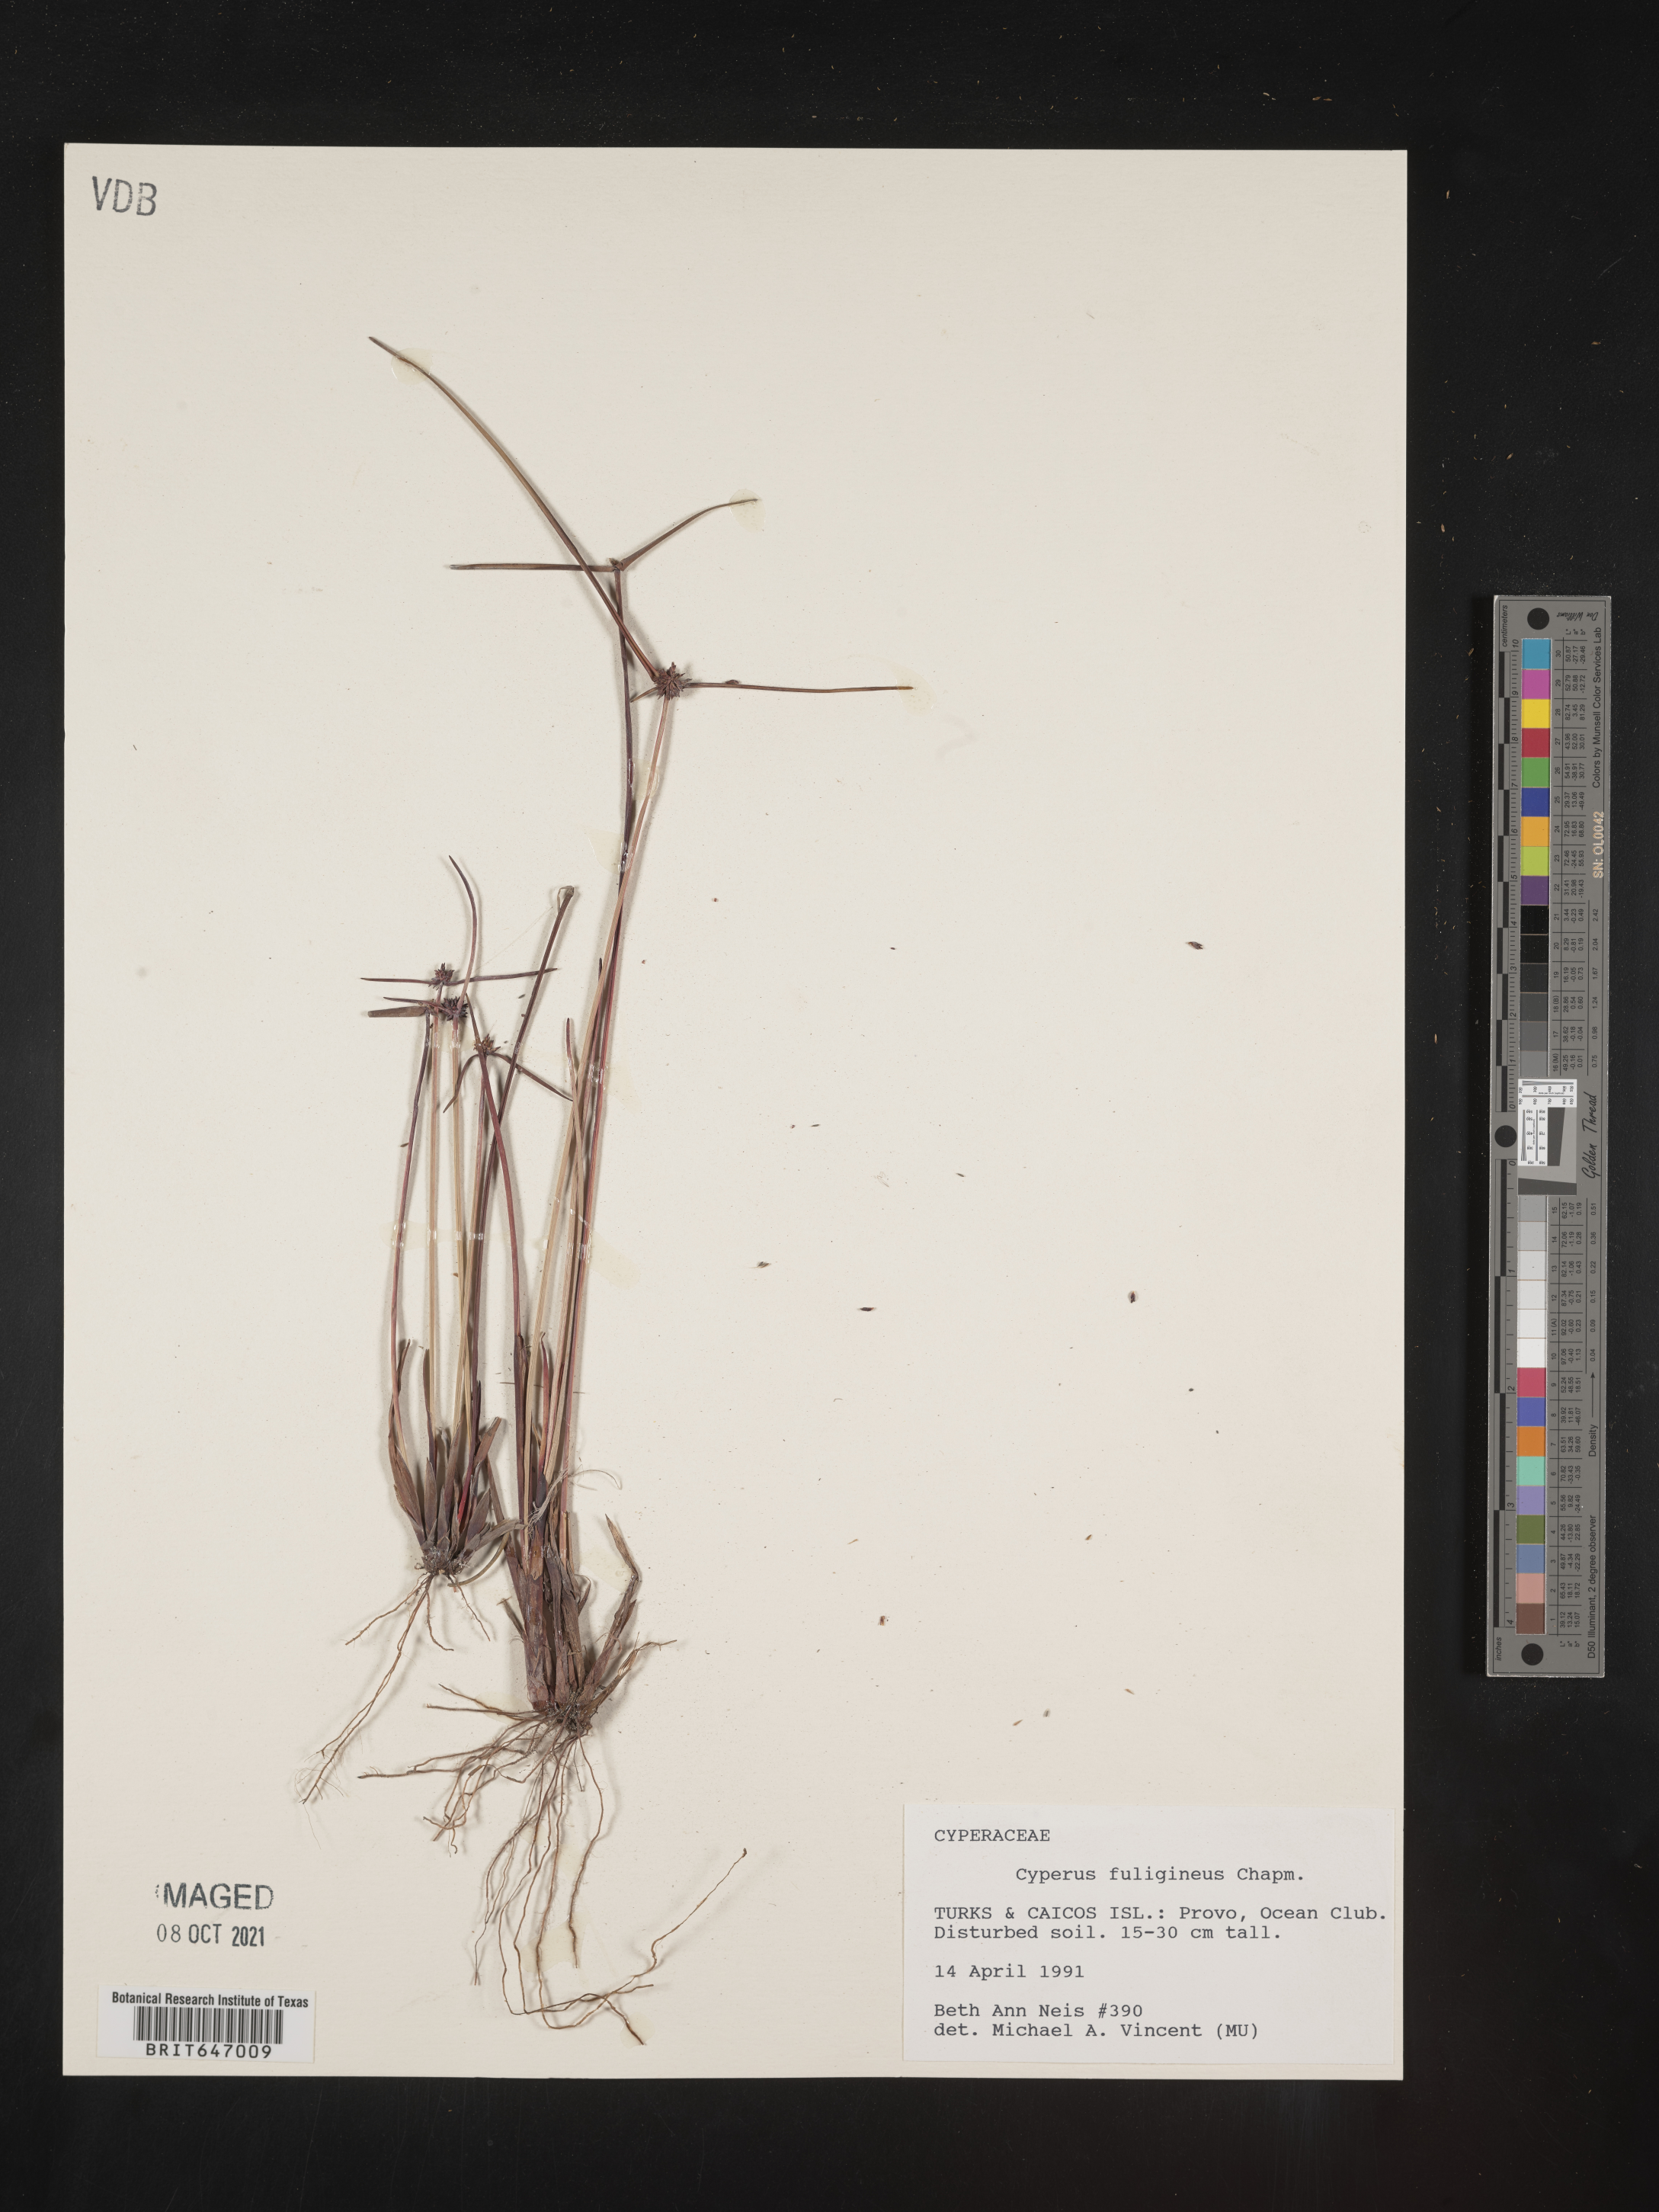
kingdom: Plantae
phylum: Tracheophyta
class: Liliopsida
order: Poales
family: Cyperaceae
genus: Cyperus
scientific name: Cyperus fuligineus
